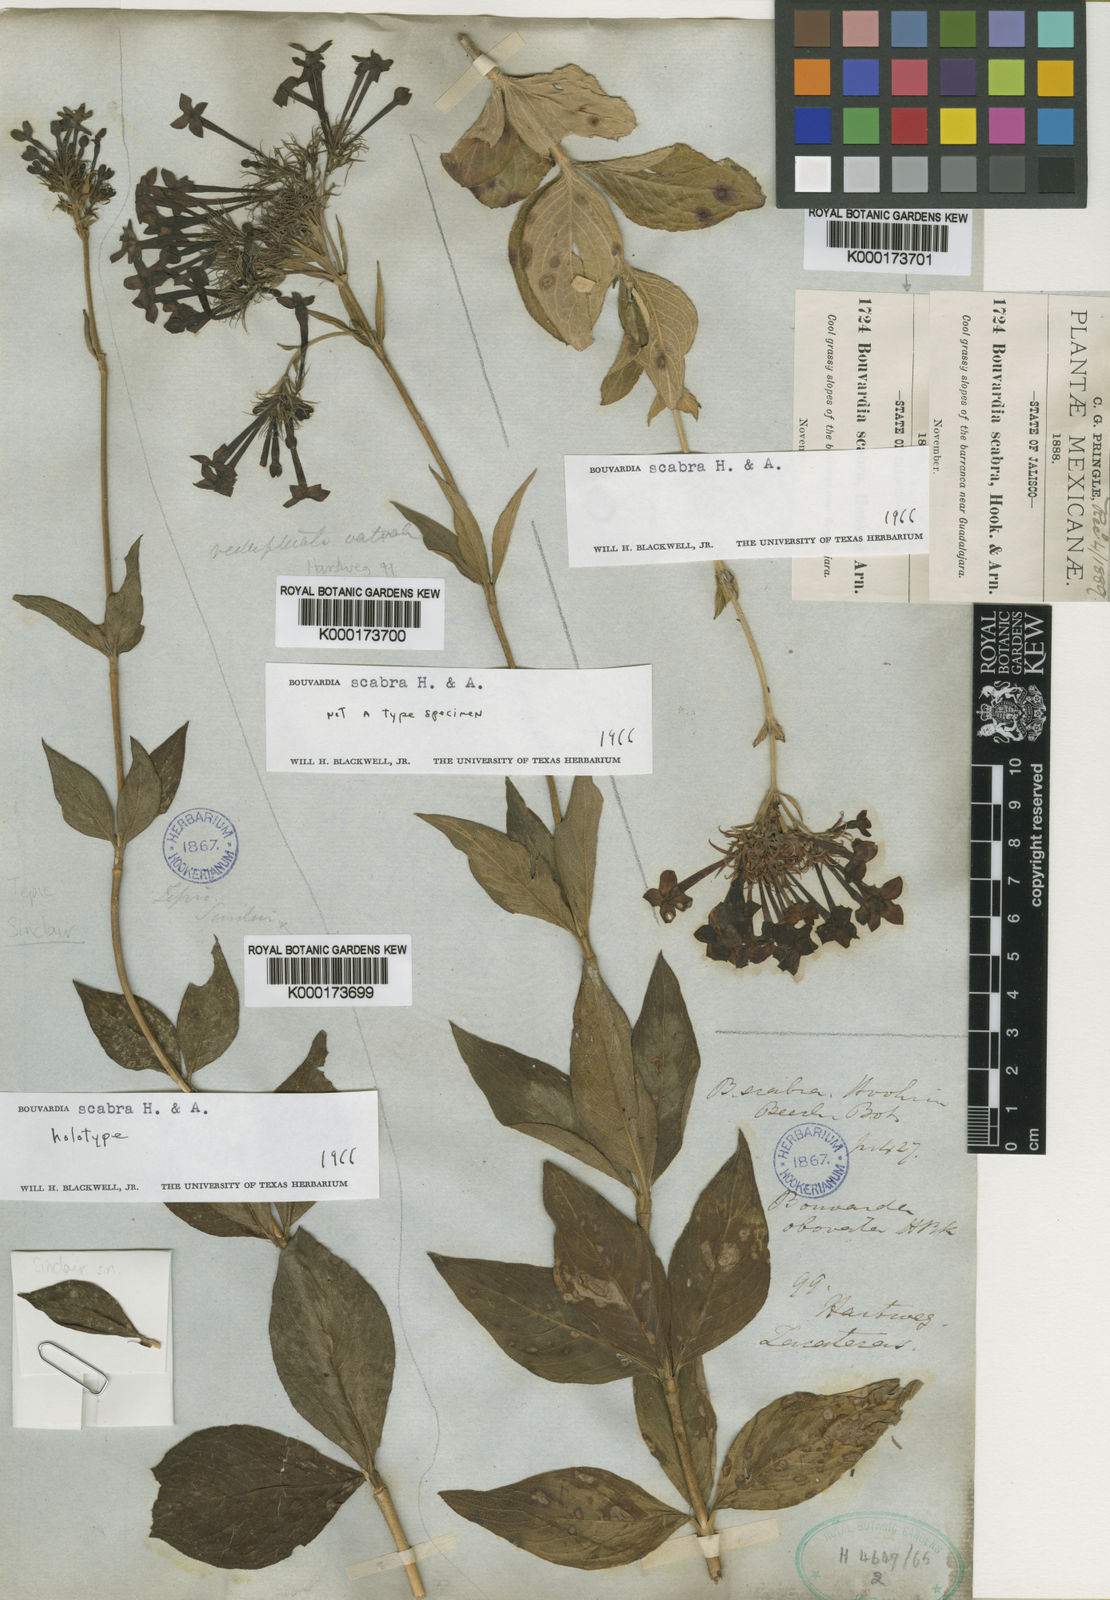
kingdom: Plantae
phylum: Tracheophyta
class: Magnoliopsida
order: Gentianales
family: Rubiaceae
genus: Bouvardia
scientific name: Bouvardia scabra
